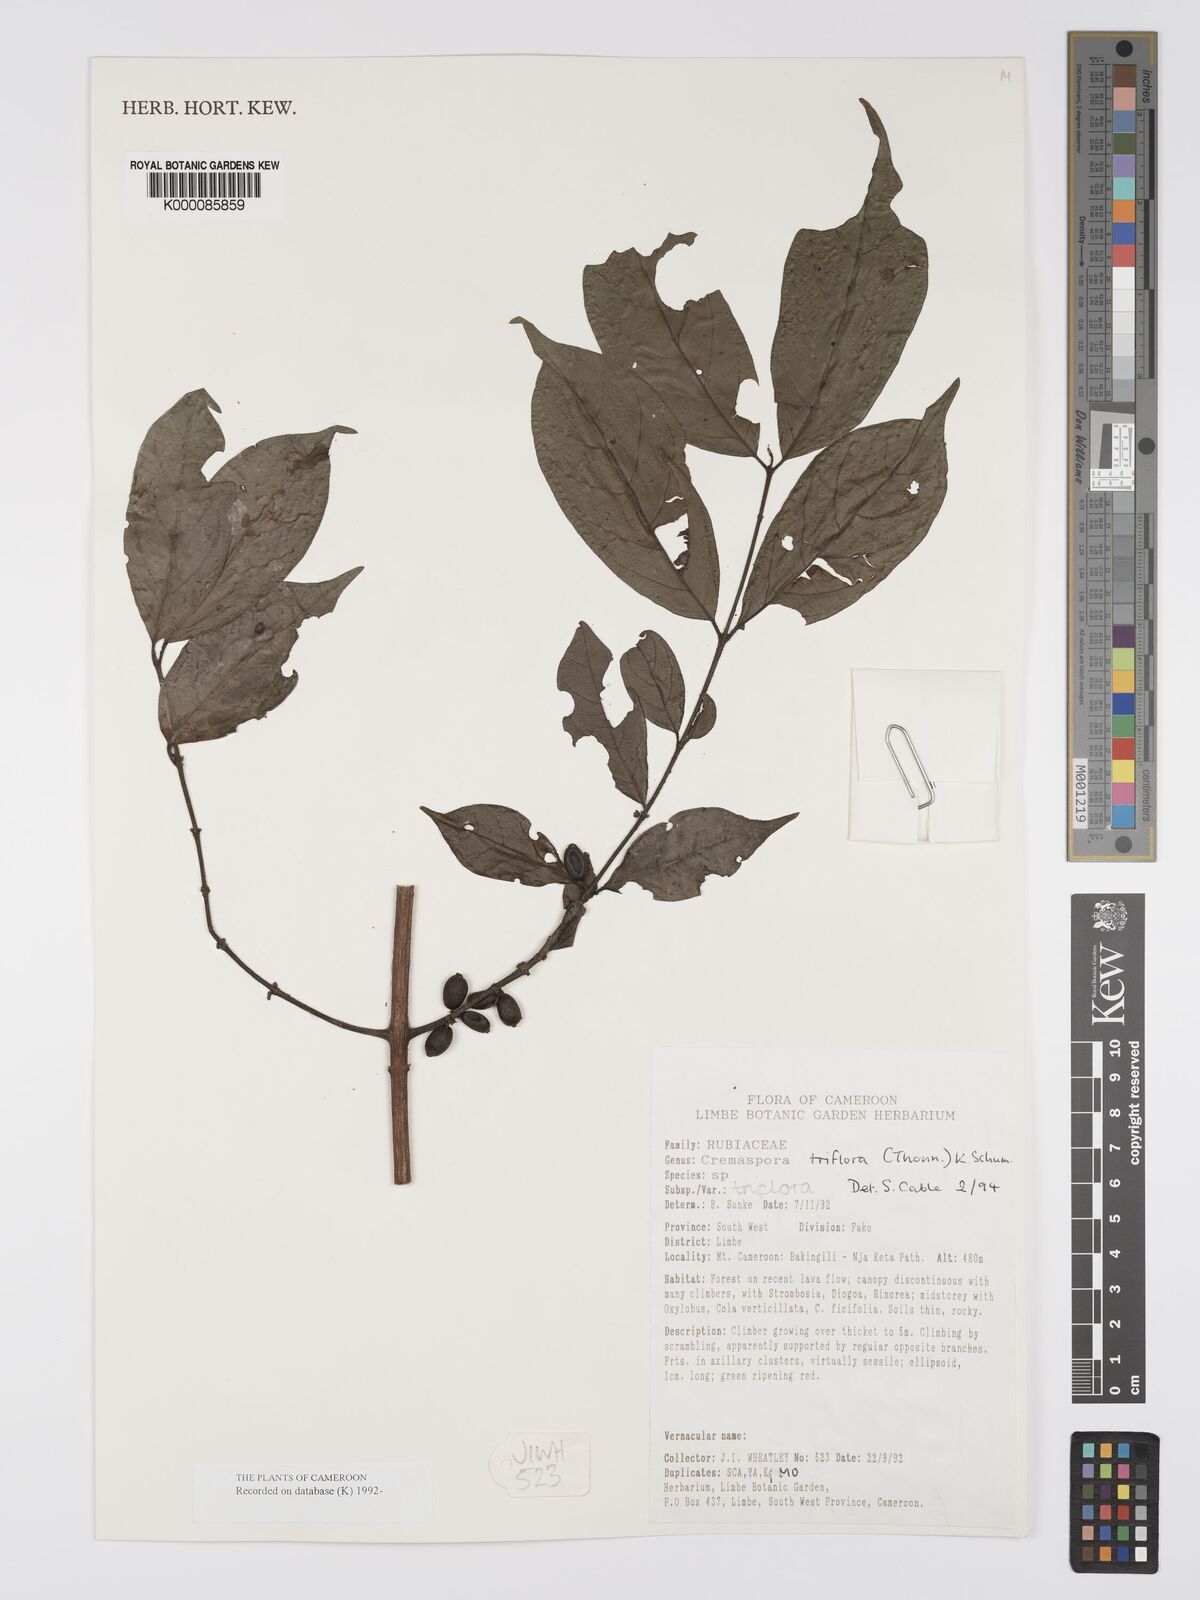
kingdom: Plantae
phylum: Tracheophyta
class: Magnoliopsida
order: Gentianales
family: Rubiaceae
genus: Cremaspora
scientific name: Cremaspora triflora
